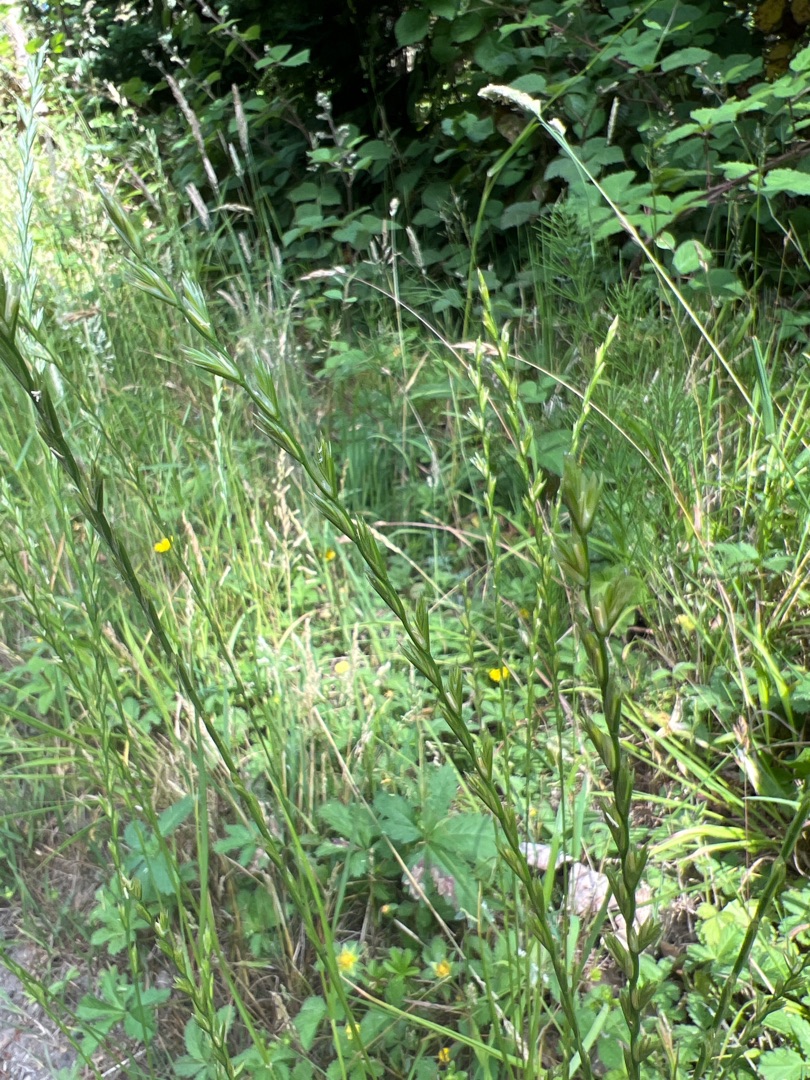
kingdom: Plantae
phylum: Tracheophyta
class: Liliopsida
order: Poales
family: Poaceae
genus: Lolium
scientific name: Lolium perenne
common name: Almindelig rajgræs
